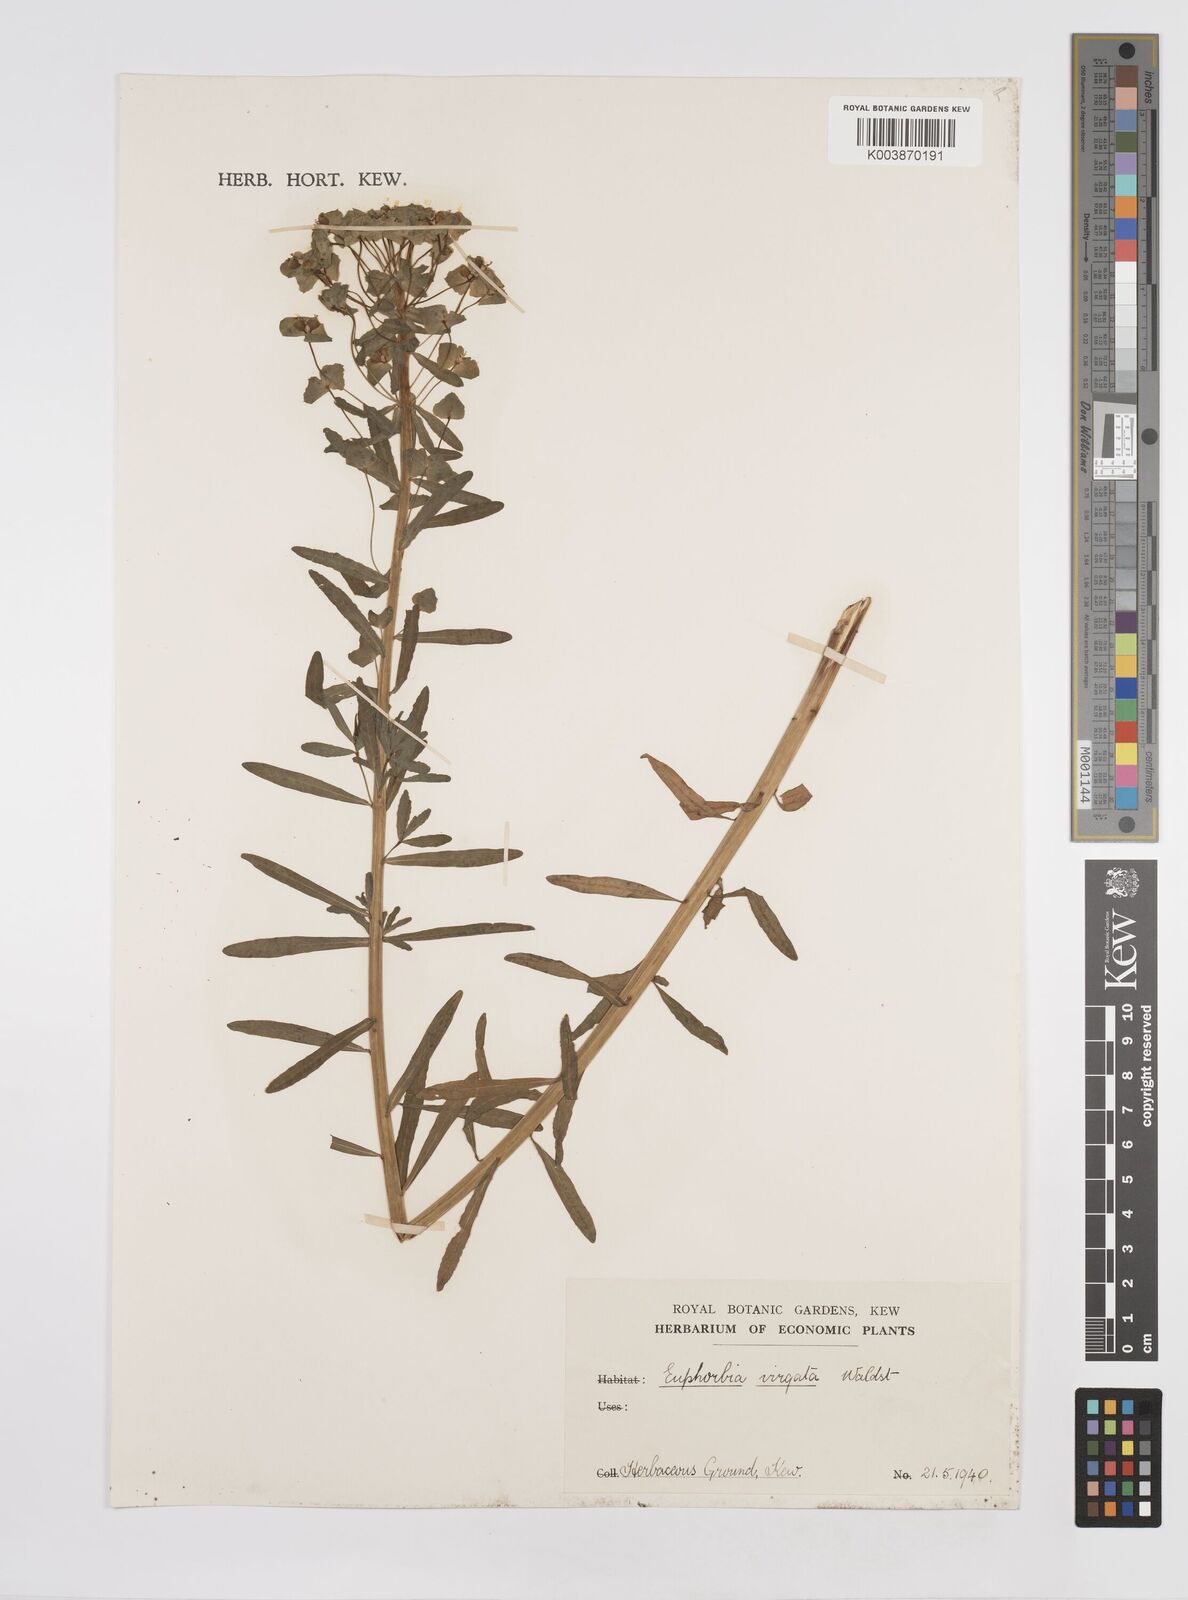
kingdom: Plantae
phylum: Tracheophyta
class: Magnoliopsida
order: Malpighiales
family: Euphorbiaceae
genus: Euphorbia
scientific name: Euphorbia
